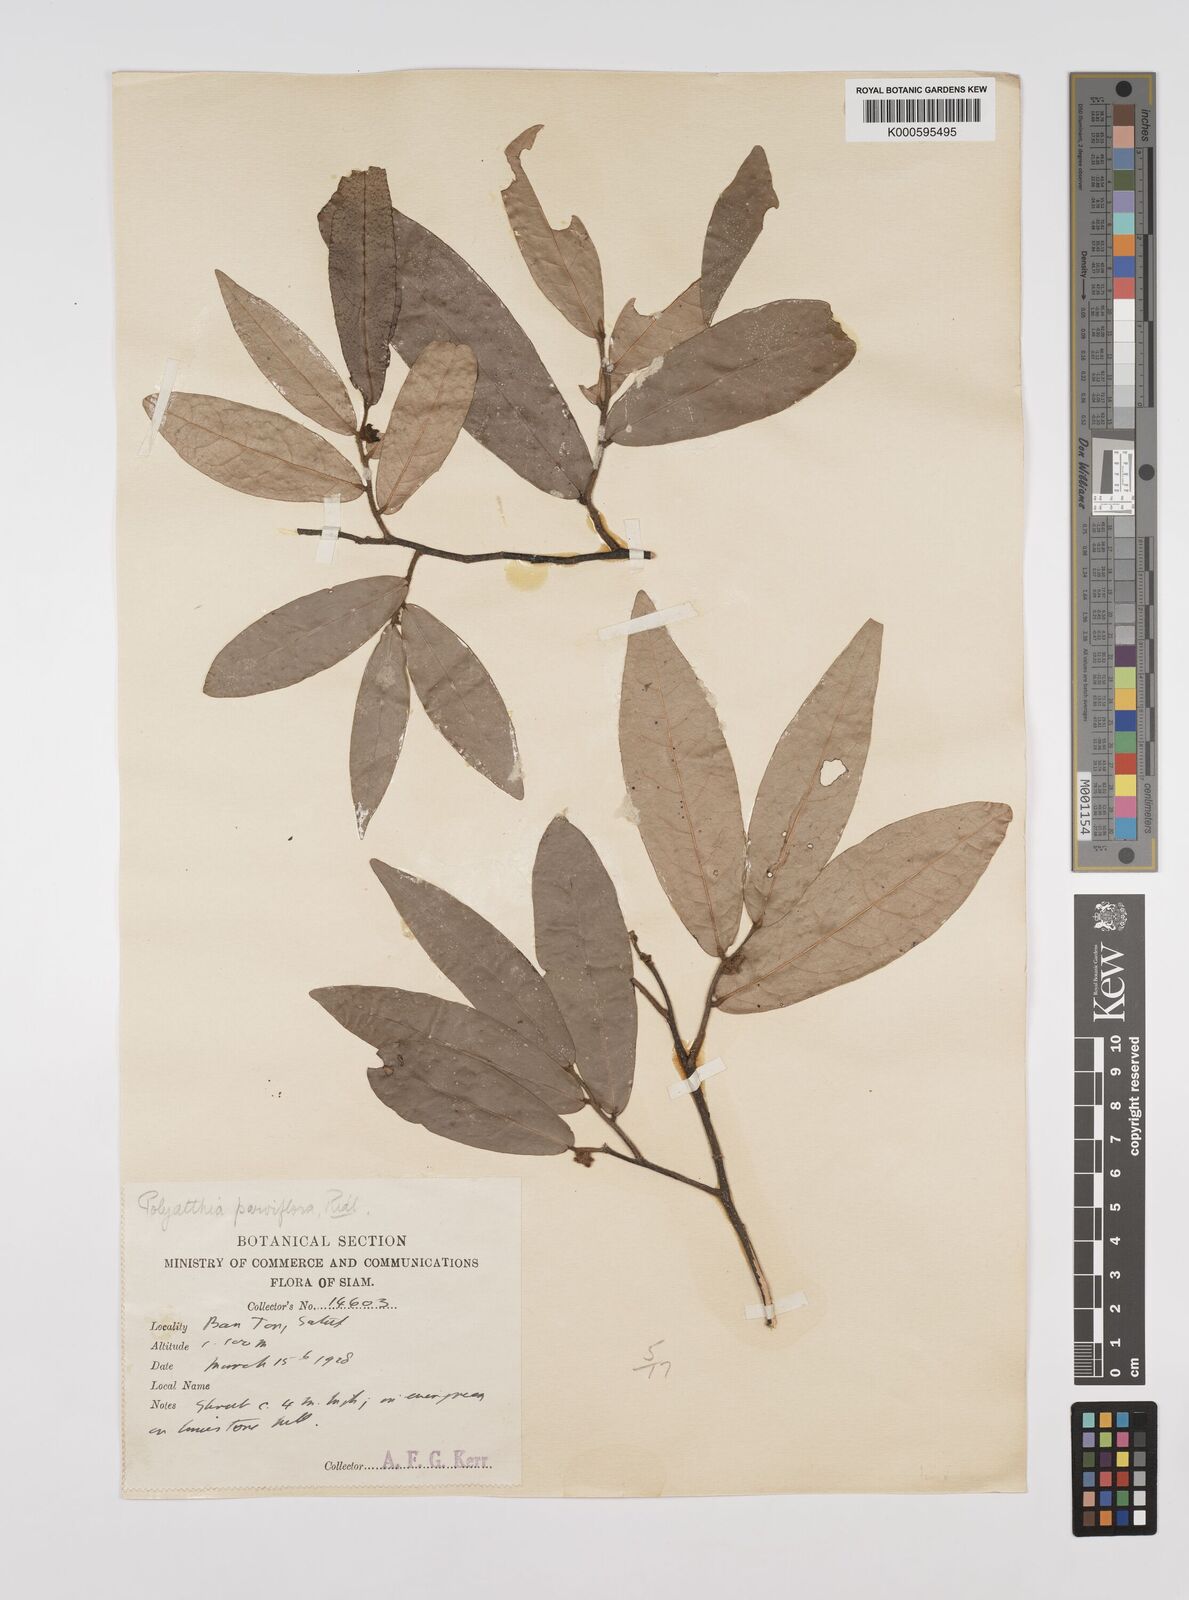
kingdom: Plantae
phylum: Tracheophyta
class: Magnoliopsida
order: Magnoliales
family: Annonaceae
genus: Polyalthia
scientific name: Polyalthia parviflora
